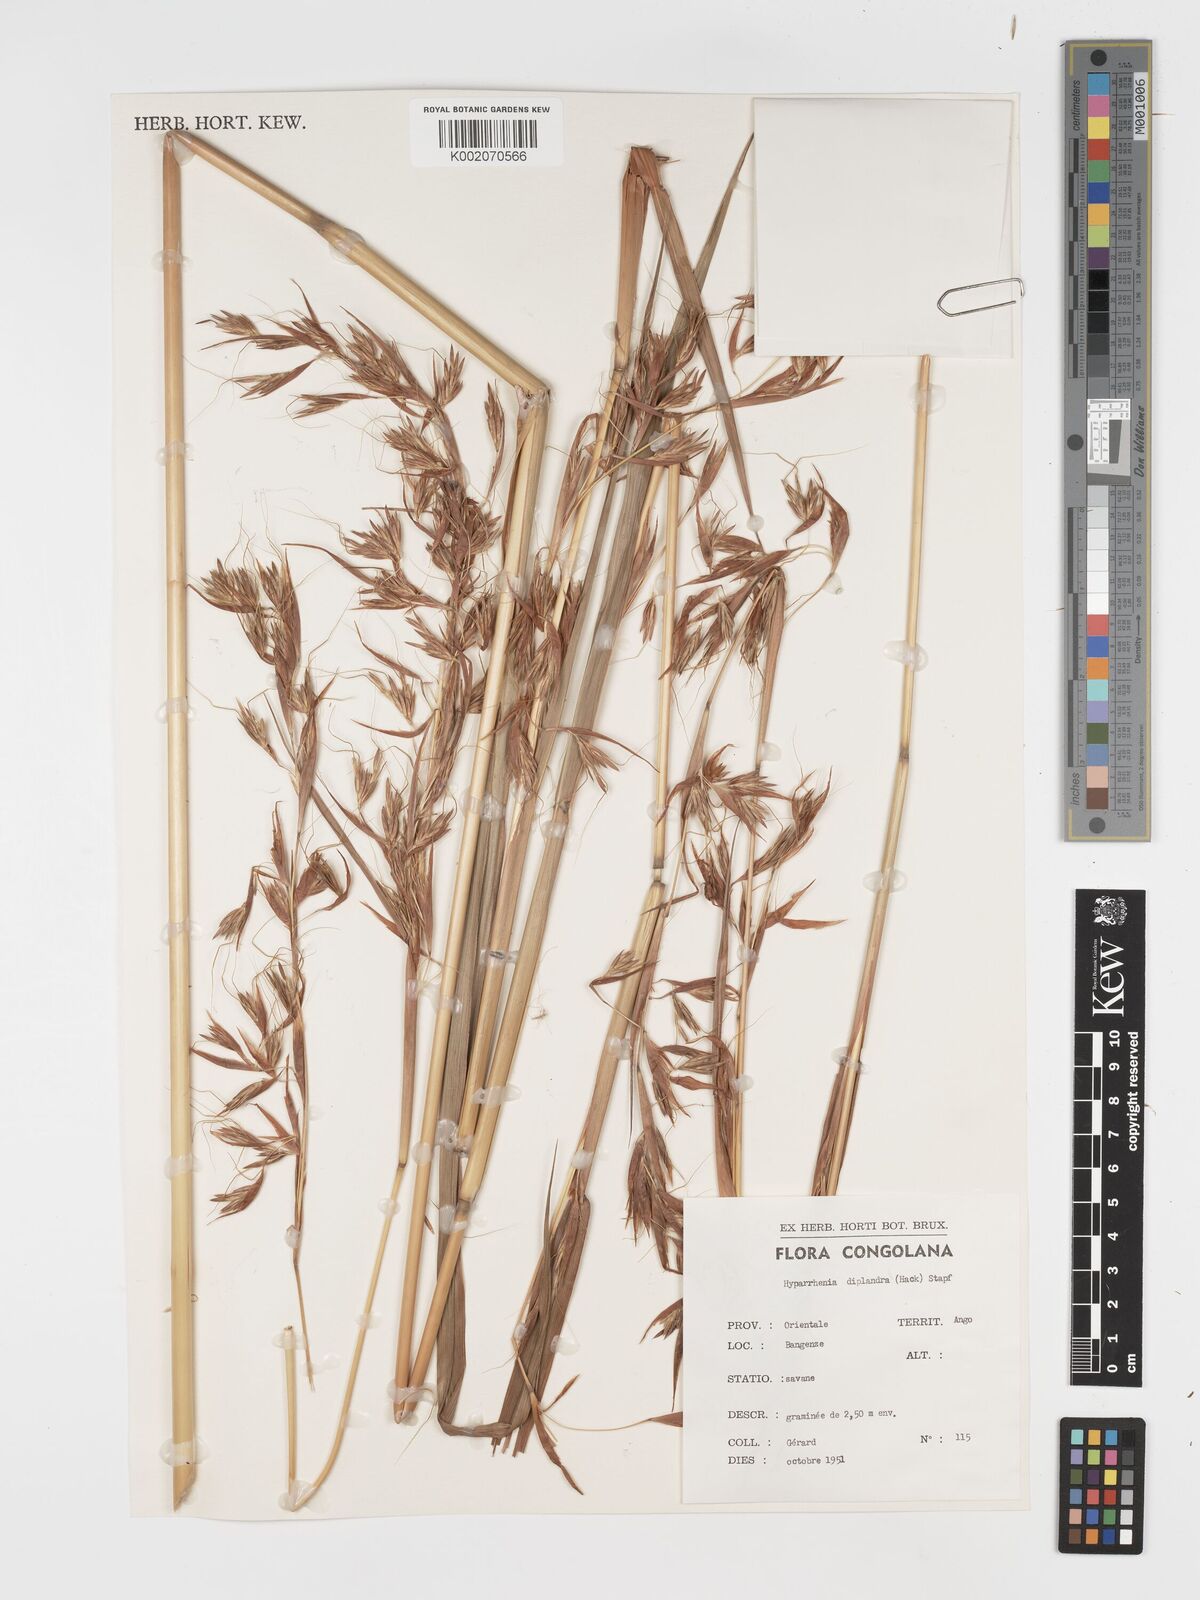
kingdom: Plantae
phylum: Tracheophyta
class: Liliopsida
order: Poales
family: Poaceae
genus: Hyparrhenia
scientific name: Hyparrhenia diplandra
